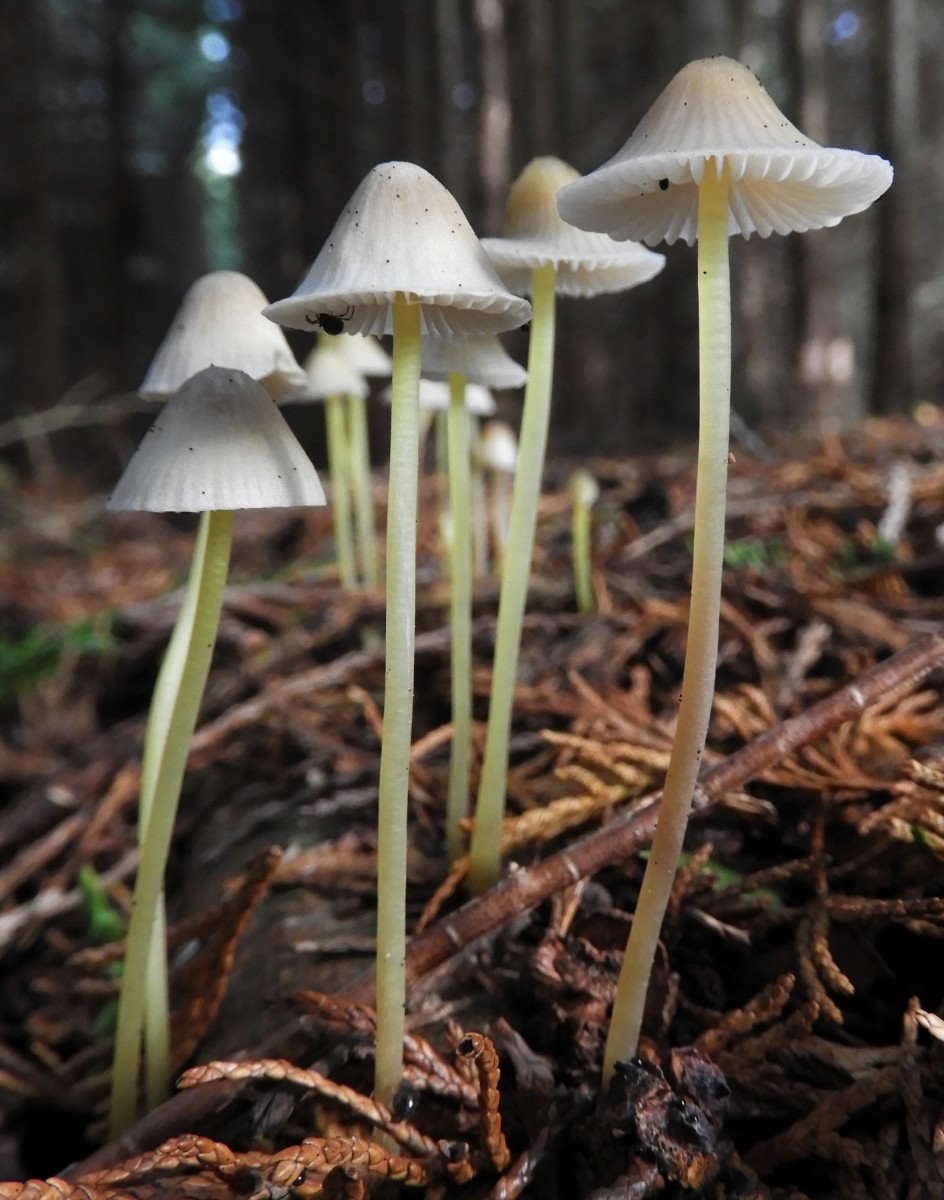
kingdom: Fungi
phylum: Basidiomycota
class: Agaricomycetes
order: Agaricales
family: Mycenaceae
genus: Mycena
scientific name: Mycena epipterygia
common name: gulstokket huesvamp
